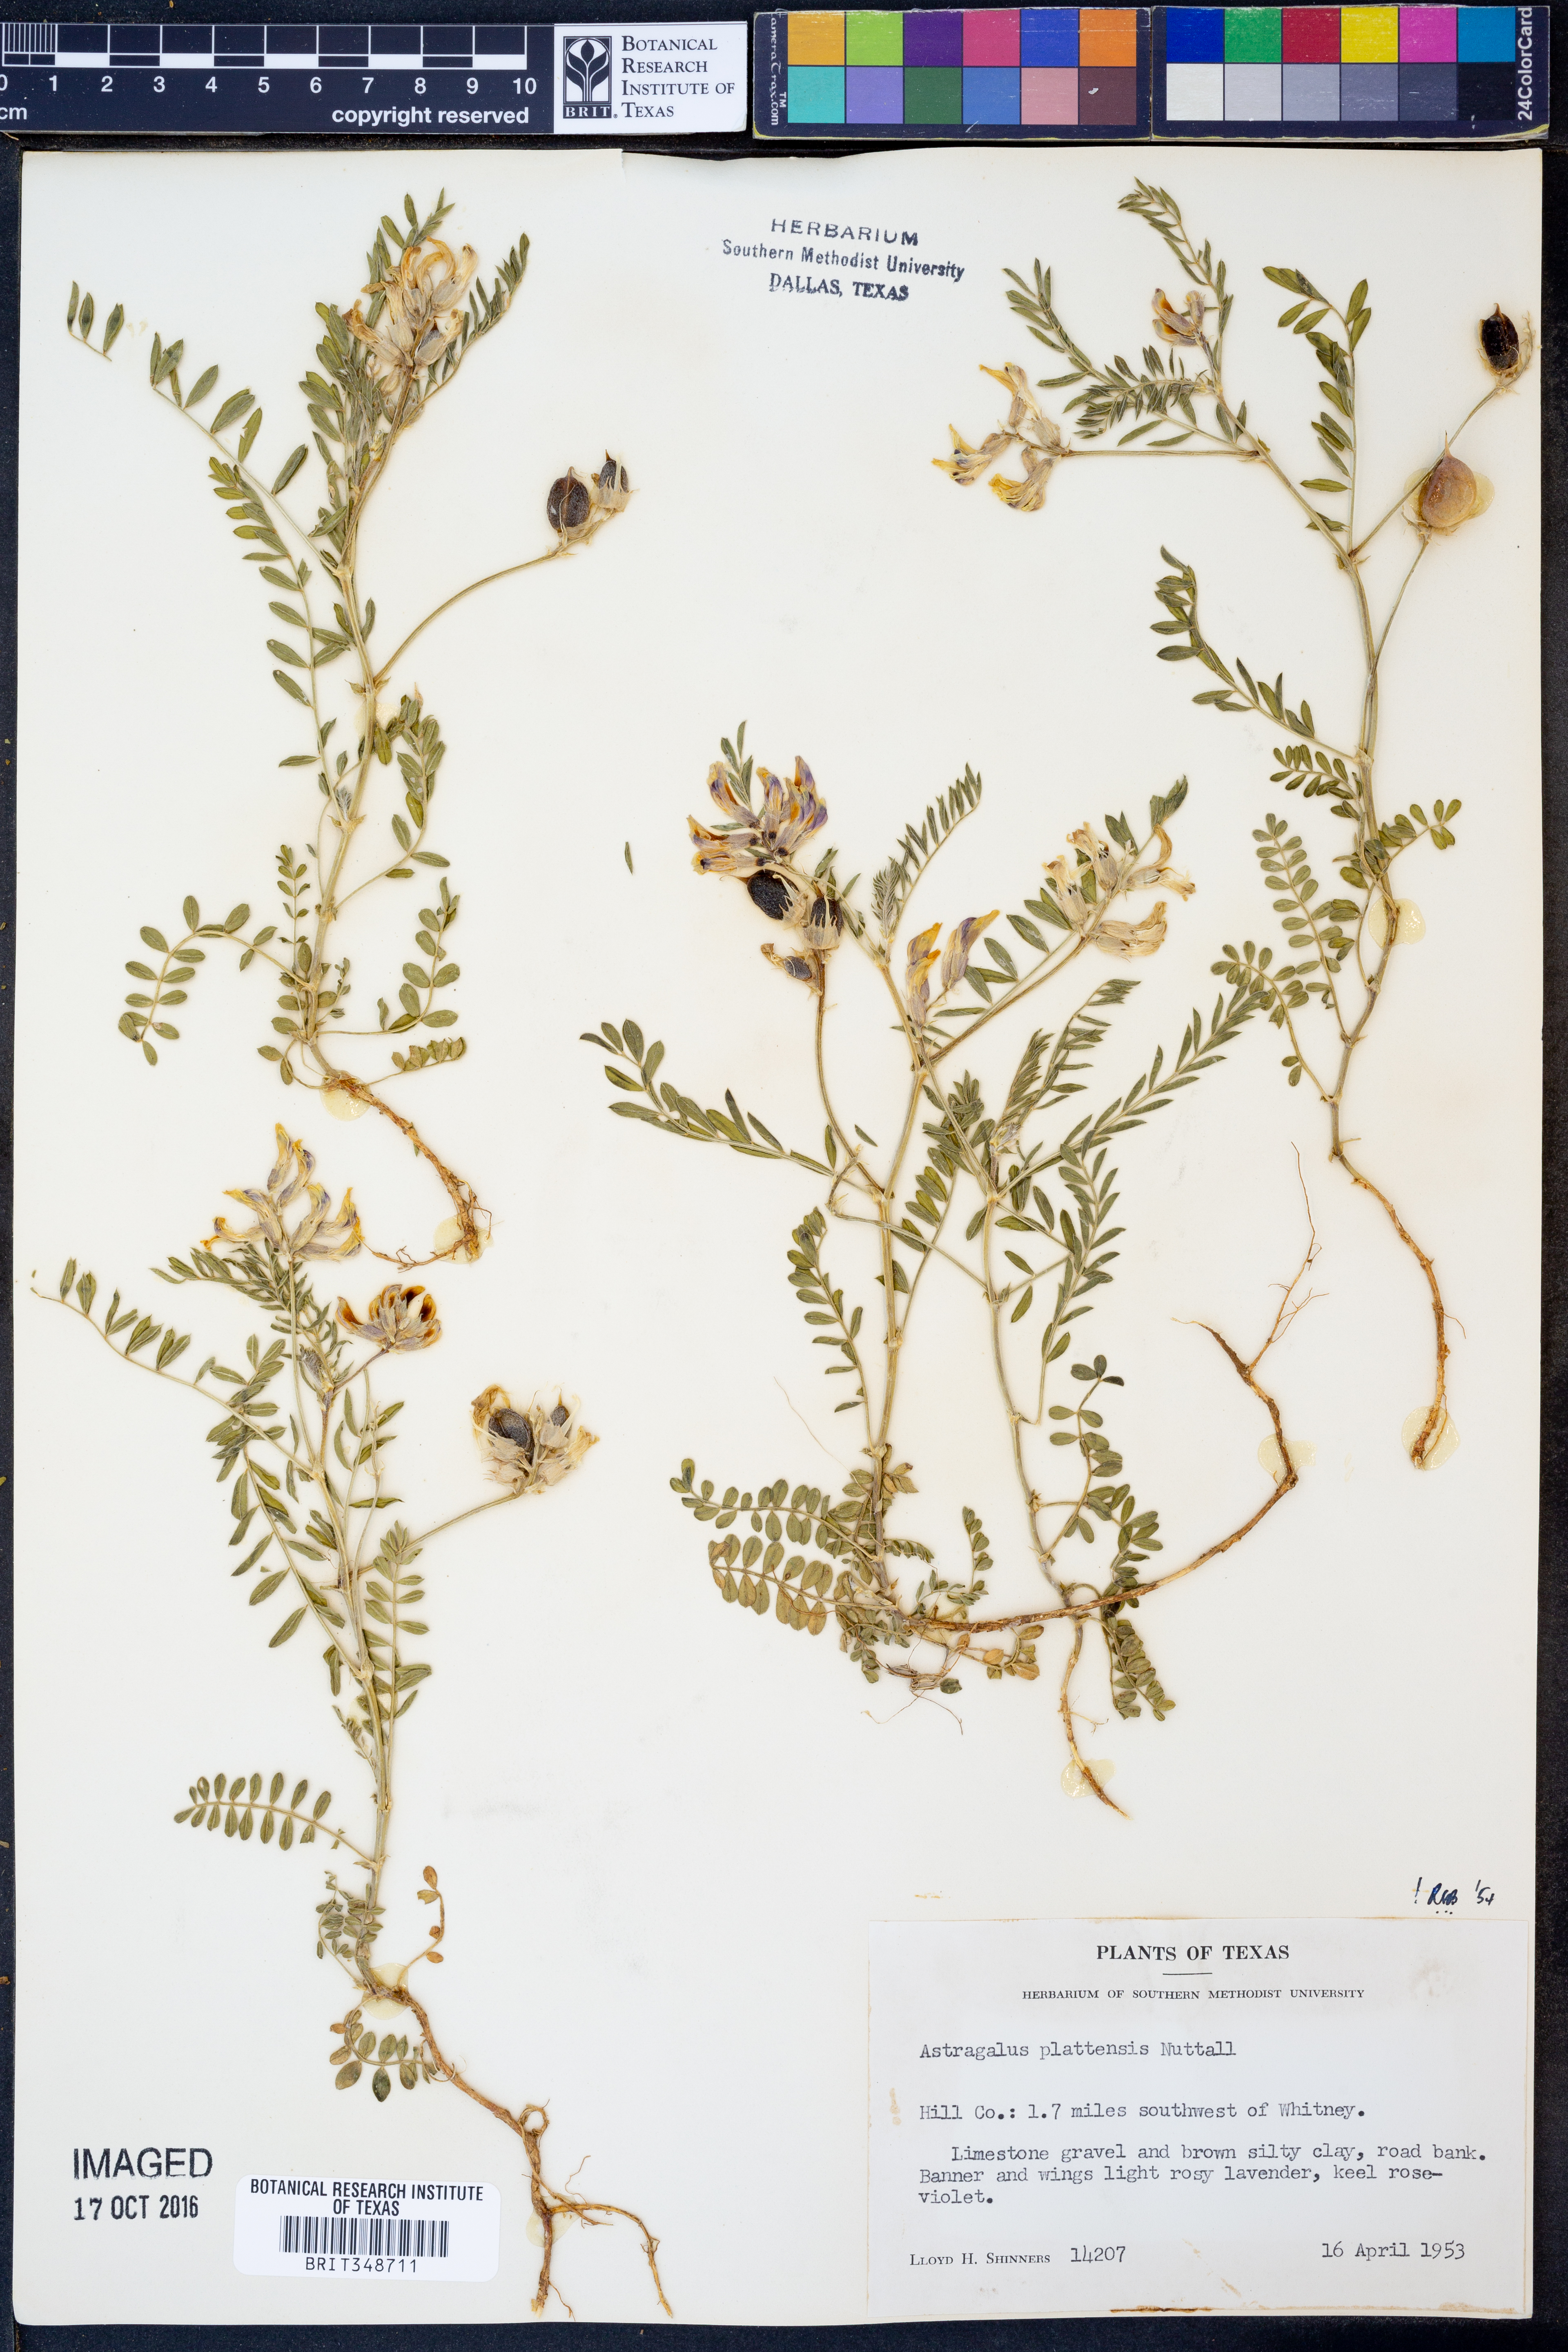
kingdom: Plantae
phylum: Tracheophyta
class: Magnoliopsida
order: Fabales
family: Fabaceae
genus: Astragalus
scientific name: Astragalus plattensis
